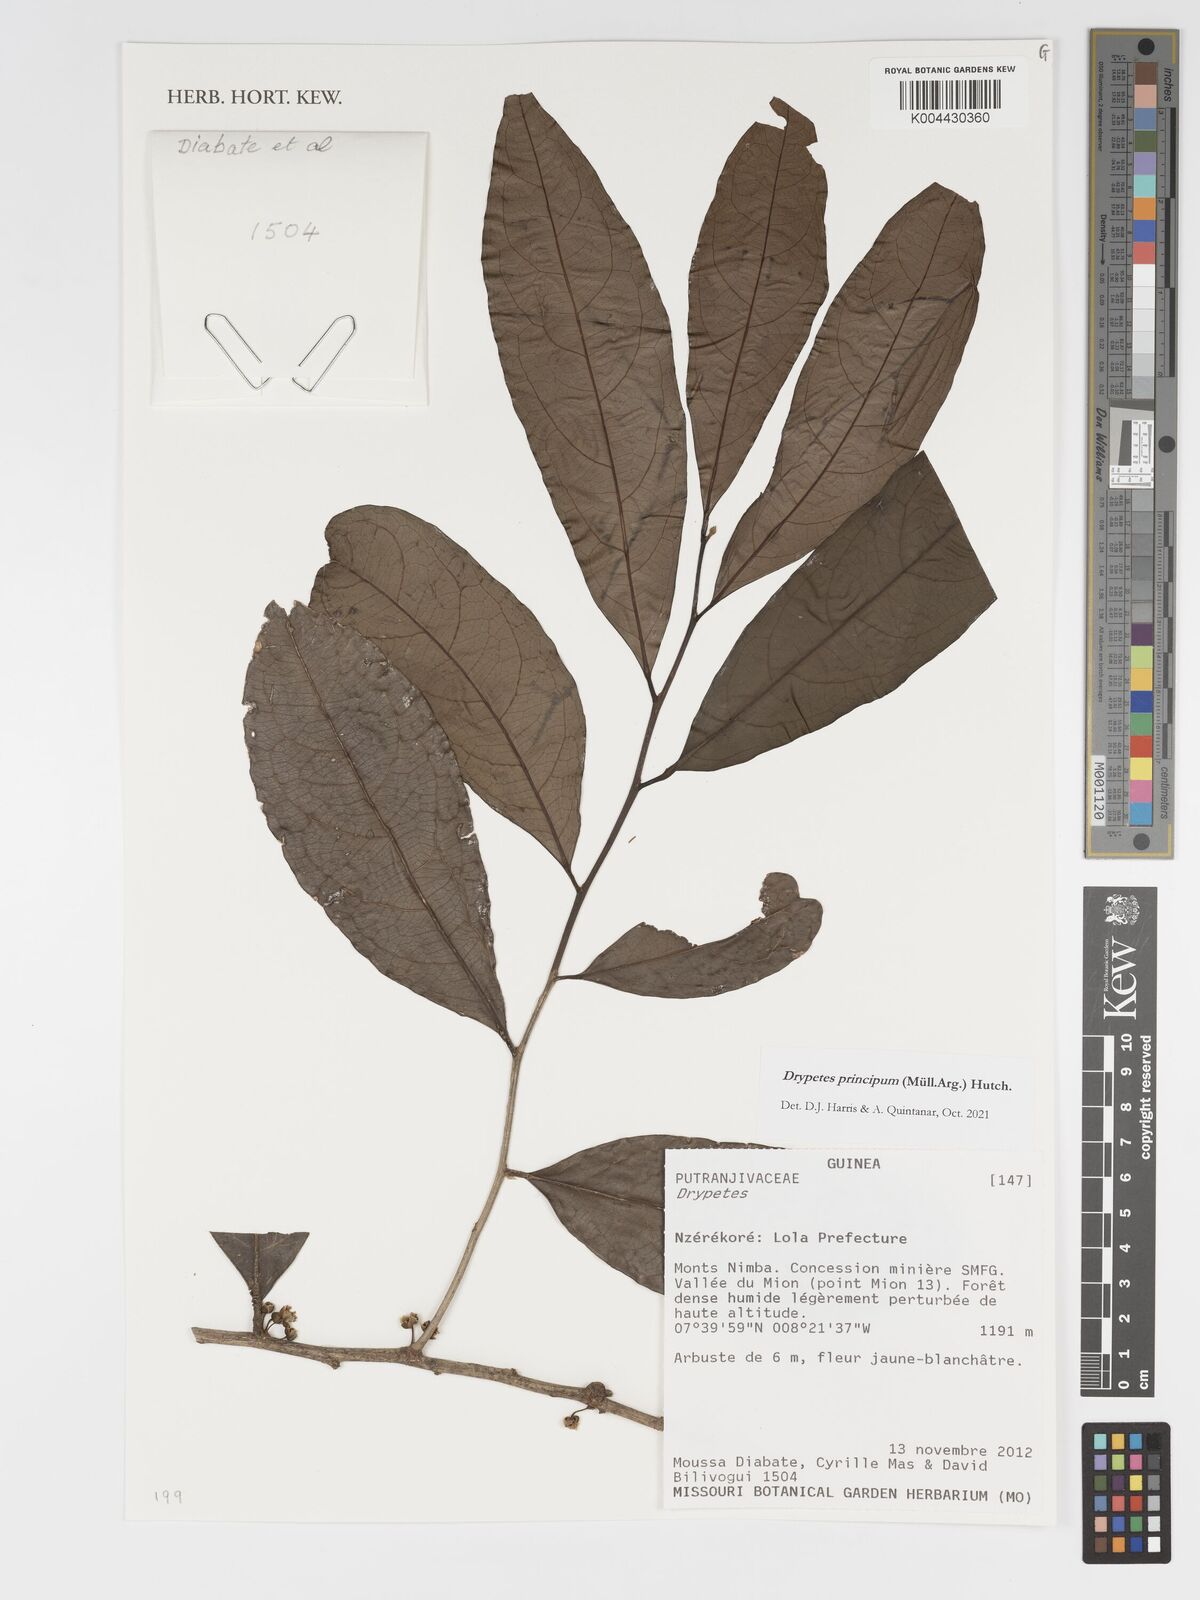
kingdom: Plantae
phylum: Tracheophyta
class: Magnoliopsida
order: Malpighiales
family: Putranjivaceae
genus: Drypetes
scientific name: Drypetes principum
